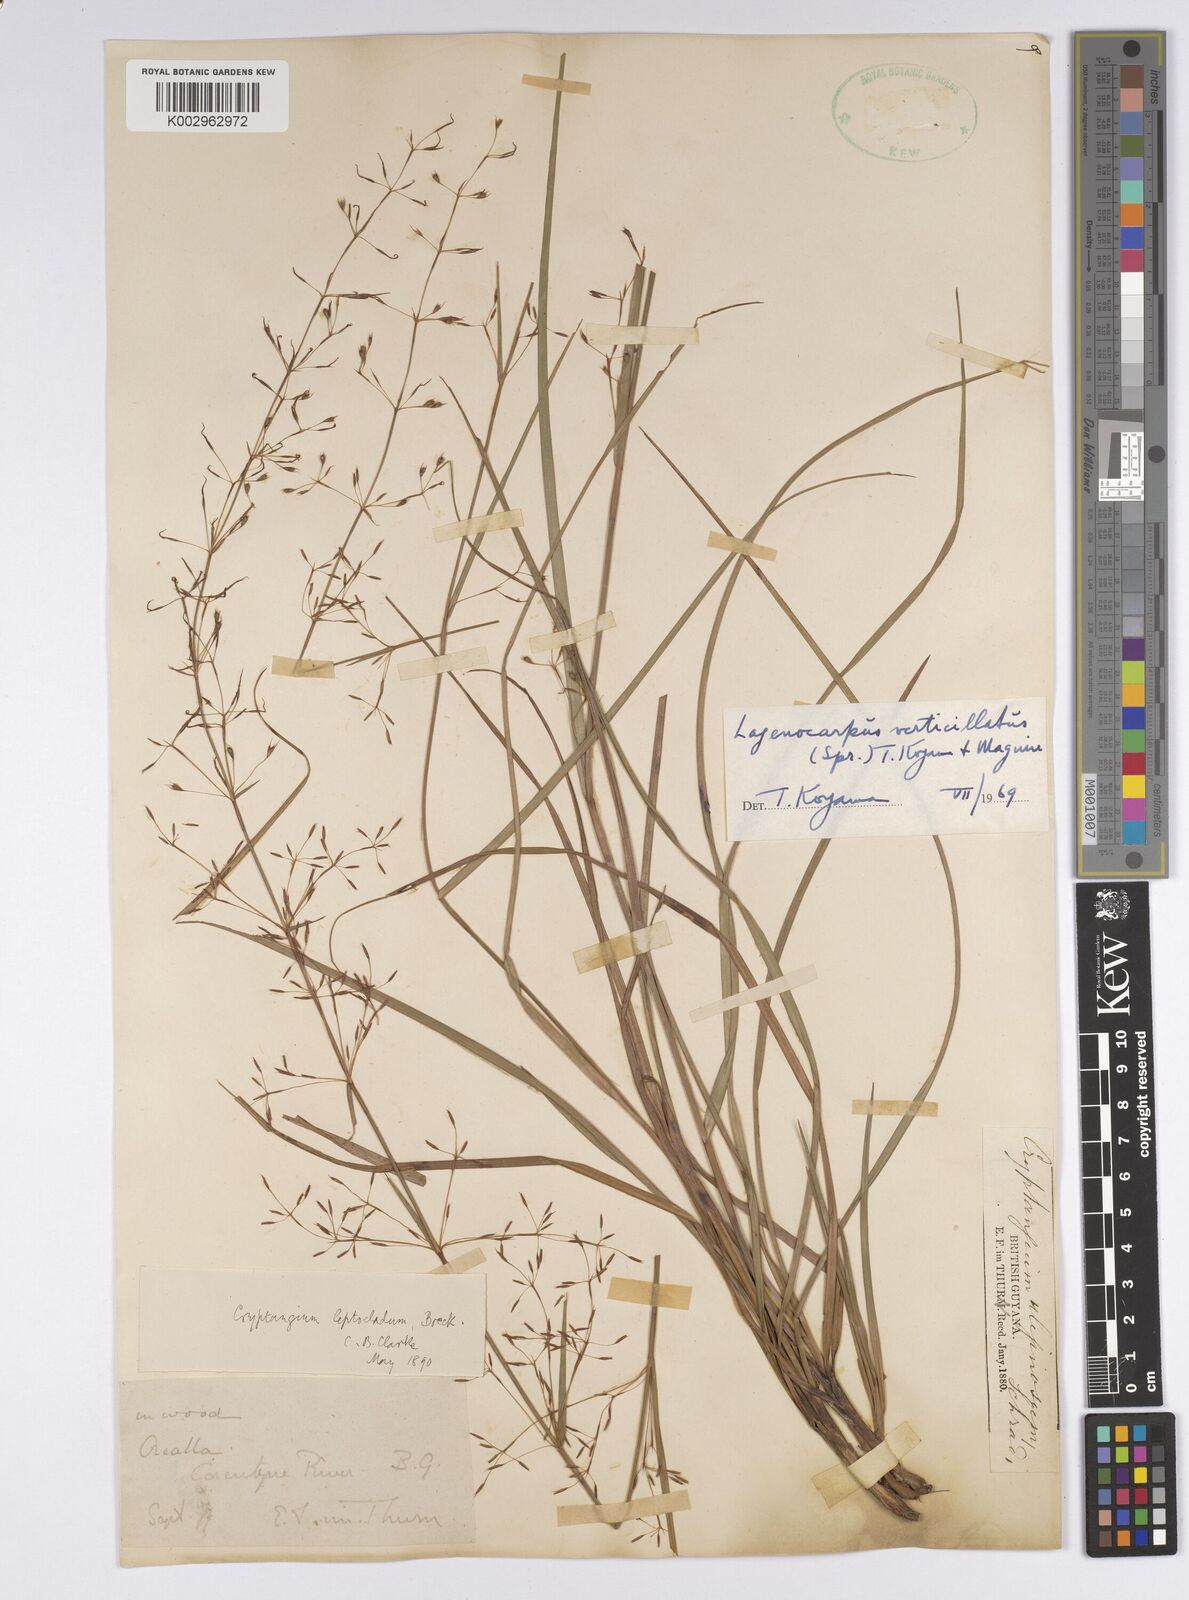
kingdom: Plantae
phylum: Tracheophyta
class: Liliopsida
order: Poales
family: Cyperaceae
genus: Cryptangium
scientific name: Cryptangium verticillatum
